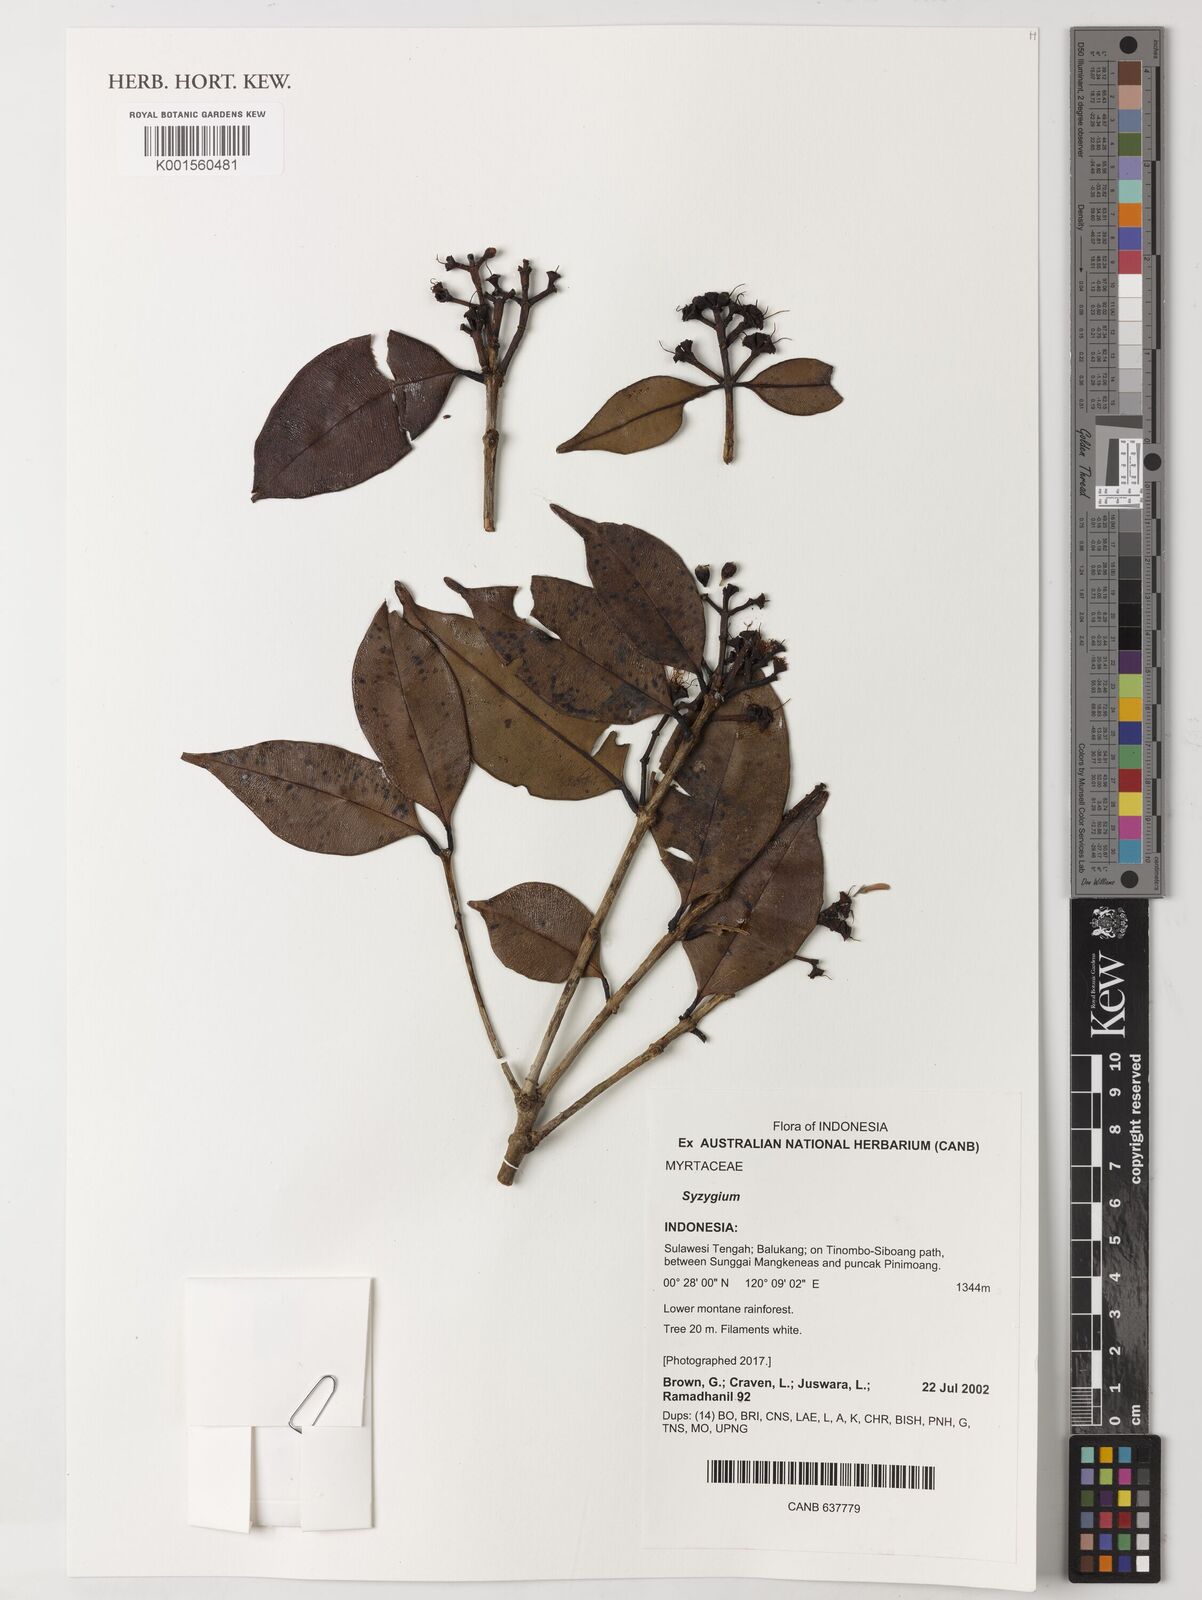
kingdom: Plantae
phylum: Tracheophyta
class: Magnoliopsida
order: Myrtales
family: Myrtaceae
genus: Syzygium
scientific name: Syzygium
